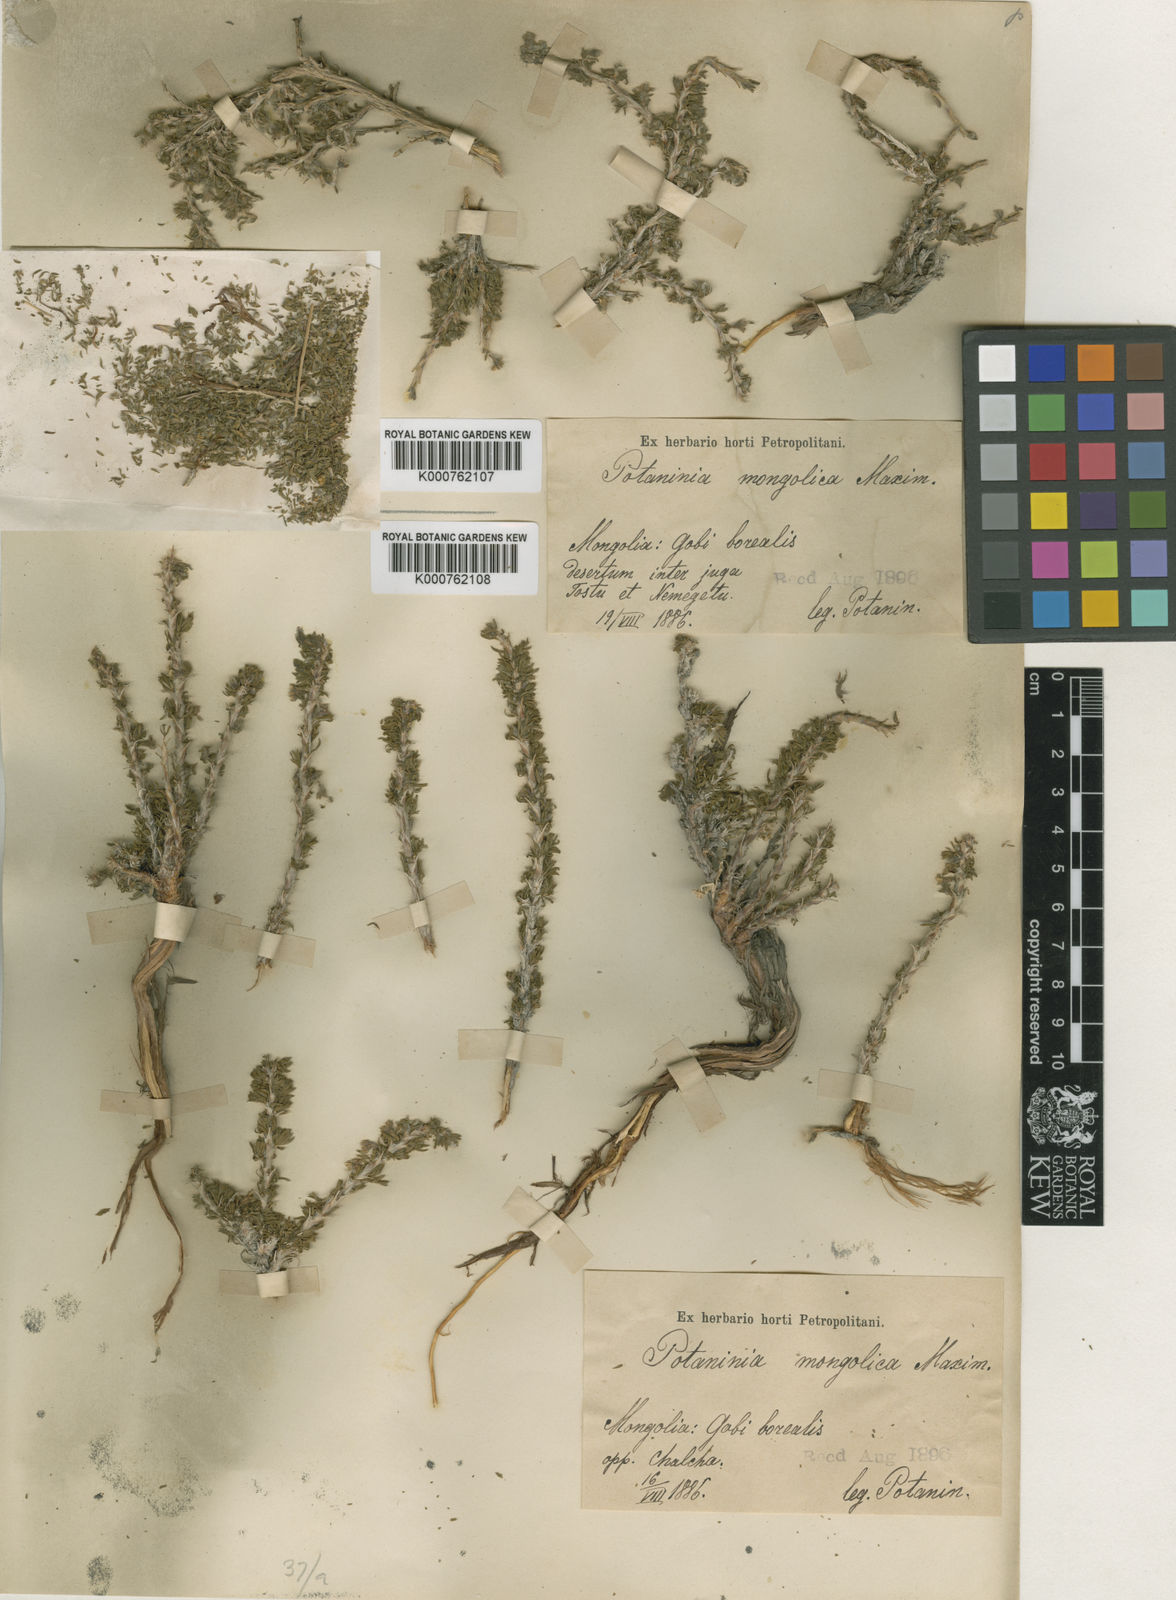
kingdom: Plantae
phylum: Tracheophyta
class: Magnoliopsida
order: Rosales
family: Rosaceae
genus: Potaninia
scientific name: Potaninia mongolica
